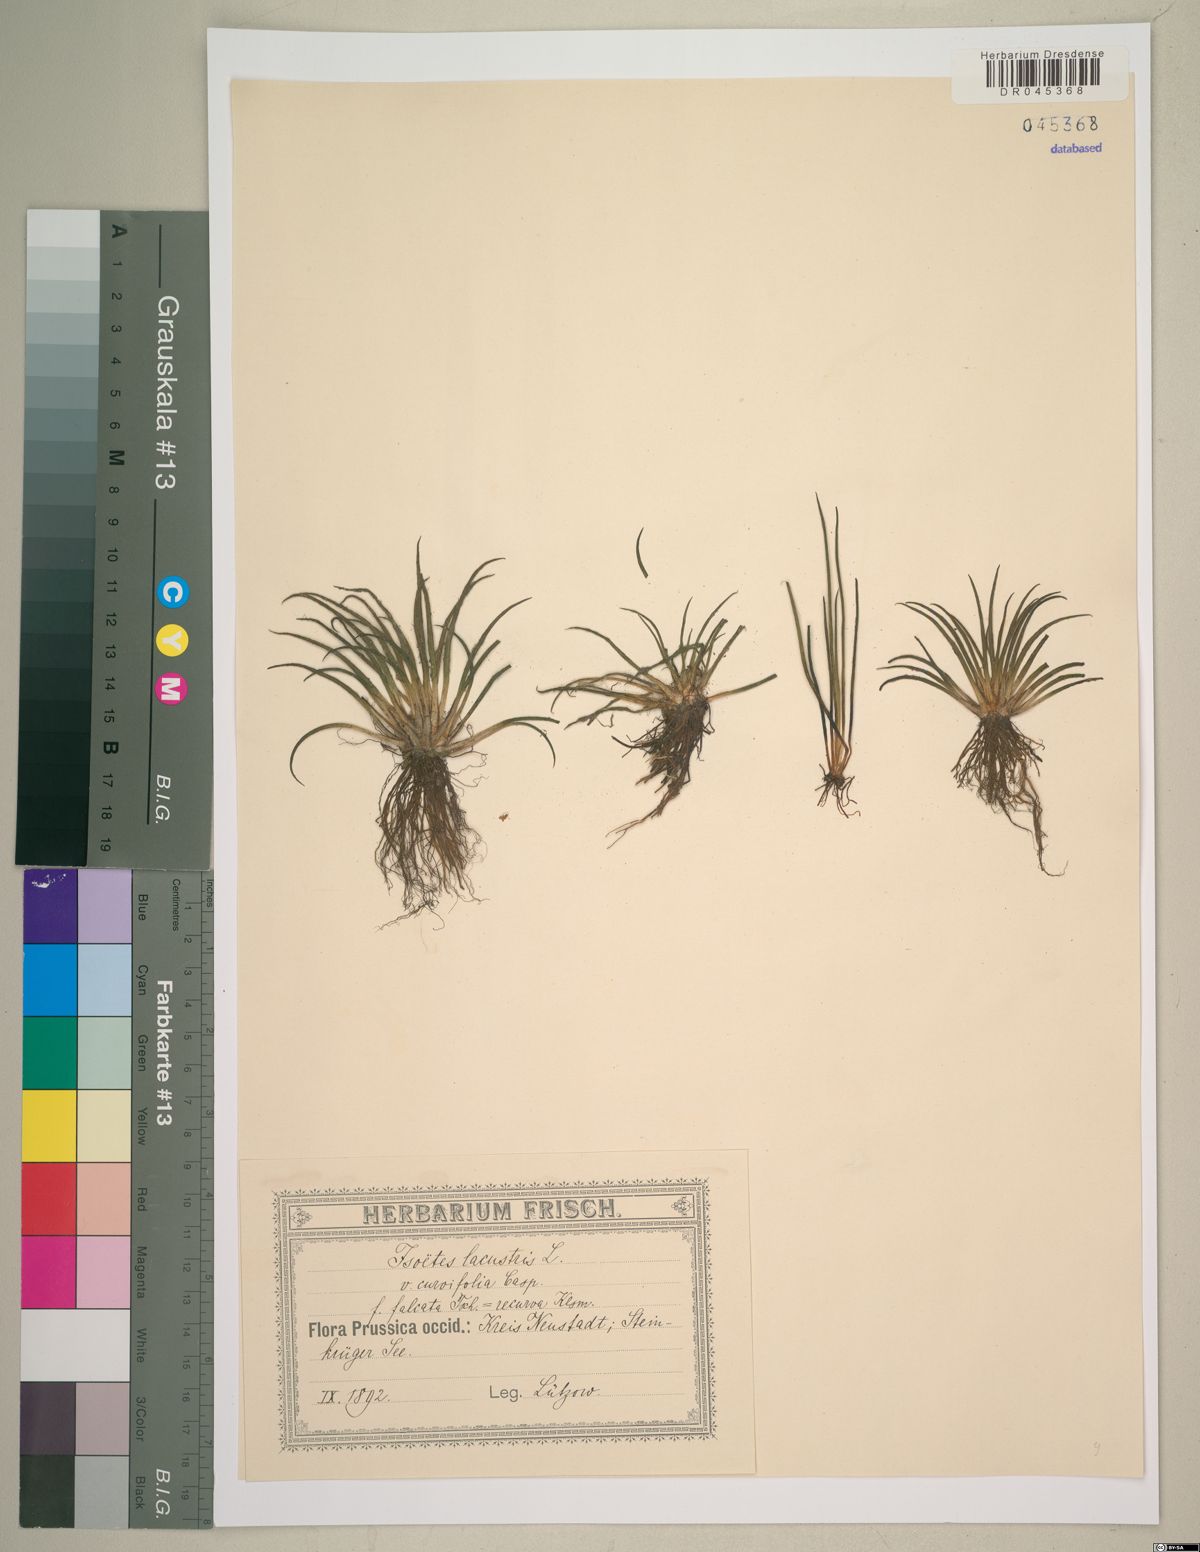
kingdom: Plantae
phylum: Tracheophyta
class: Lycopodiopsida
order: Isoetales
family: Isoetaceae
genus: Isoetes
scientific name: Isoetes lacustris
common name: Common quillwort
